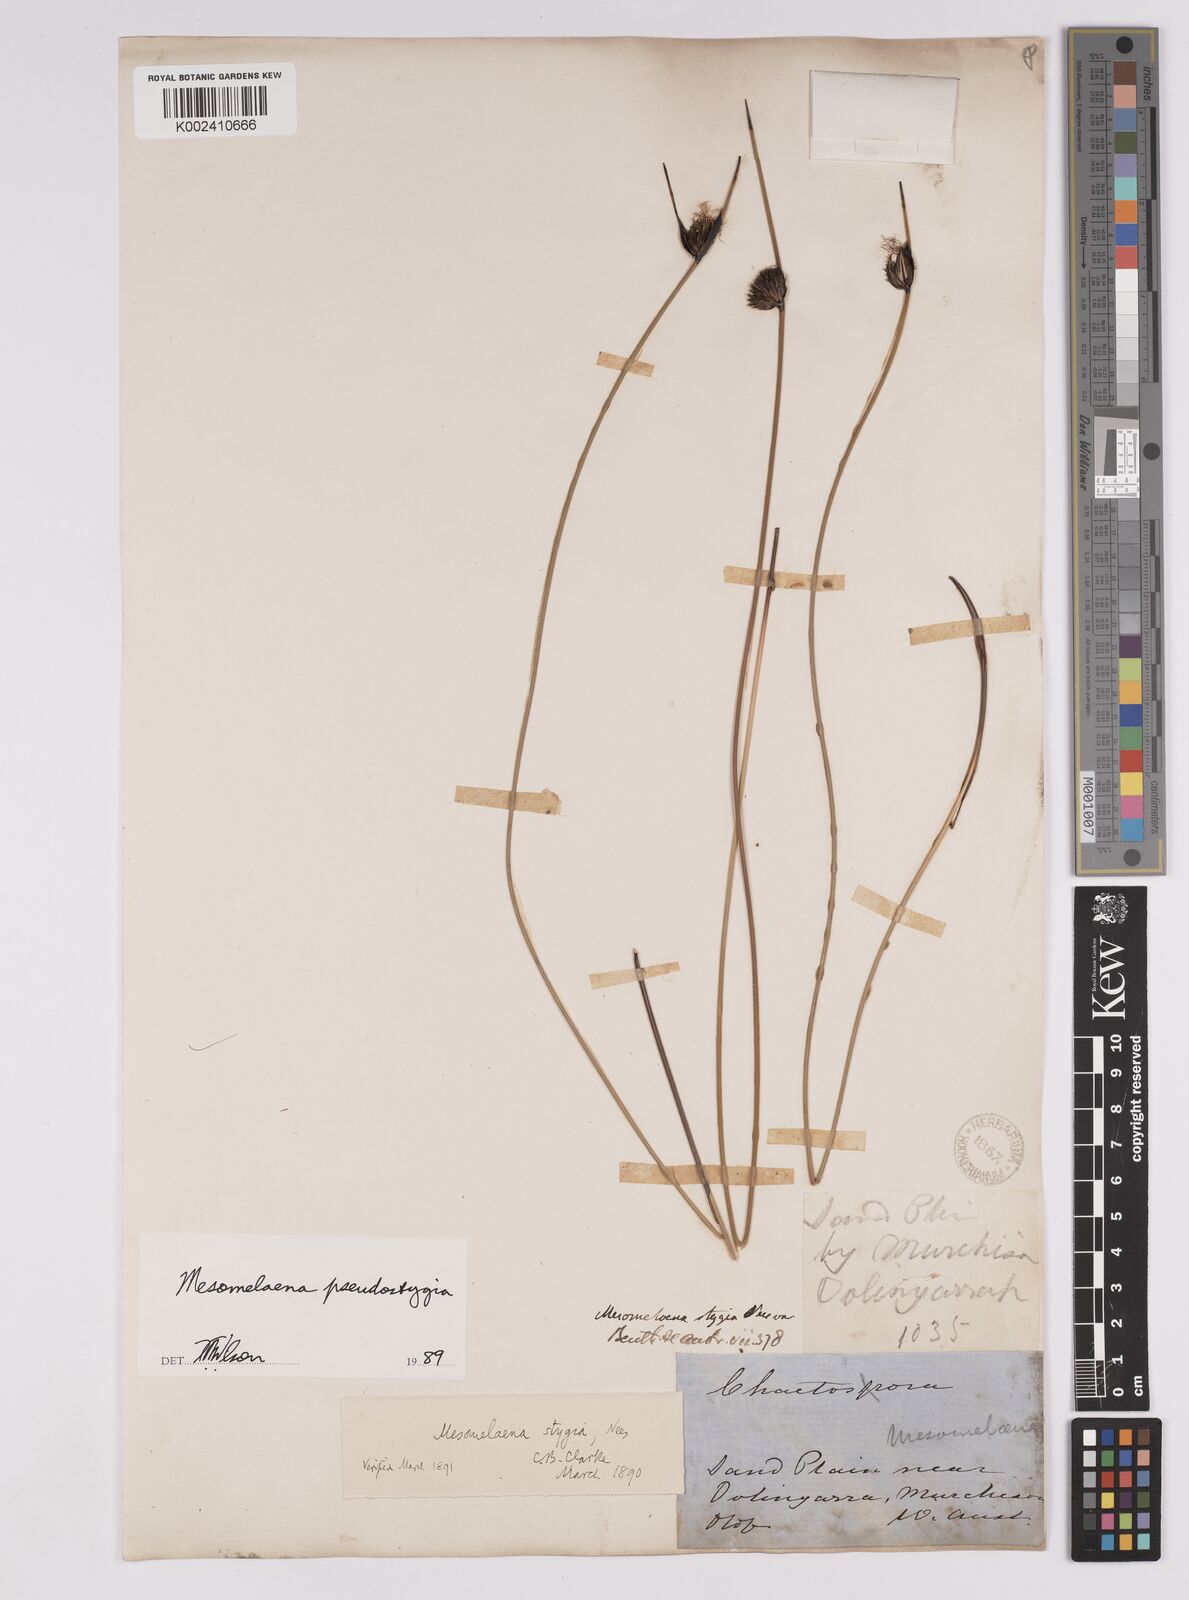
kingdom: Plantae
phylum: Tracheophyta
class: Liliopsida
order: Poales
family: Cyperaceae
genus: Mesomelaena
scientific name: Mesomelaena pseudostygia
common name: Semaphore sedge
